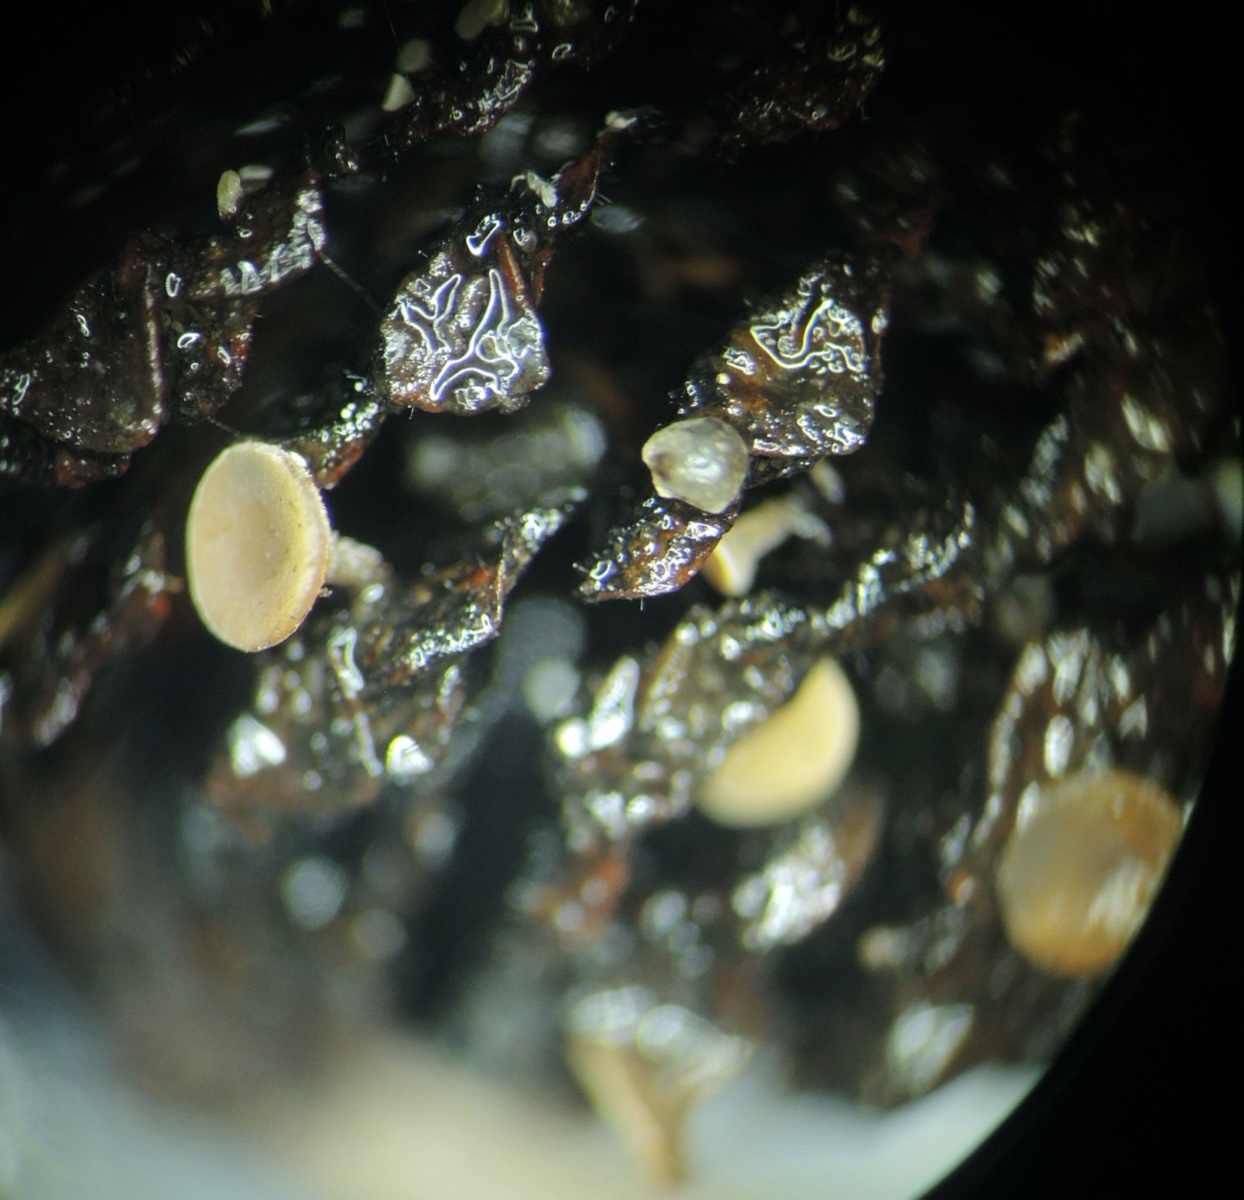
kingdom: Fungi
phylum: Ascomycota
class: Leotiomycetes
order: Helotiales
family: Sclerotiniaceae
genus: Ciboria
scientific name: Ciboria viridifusca
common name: ellekogle-knoldskive
